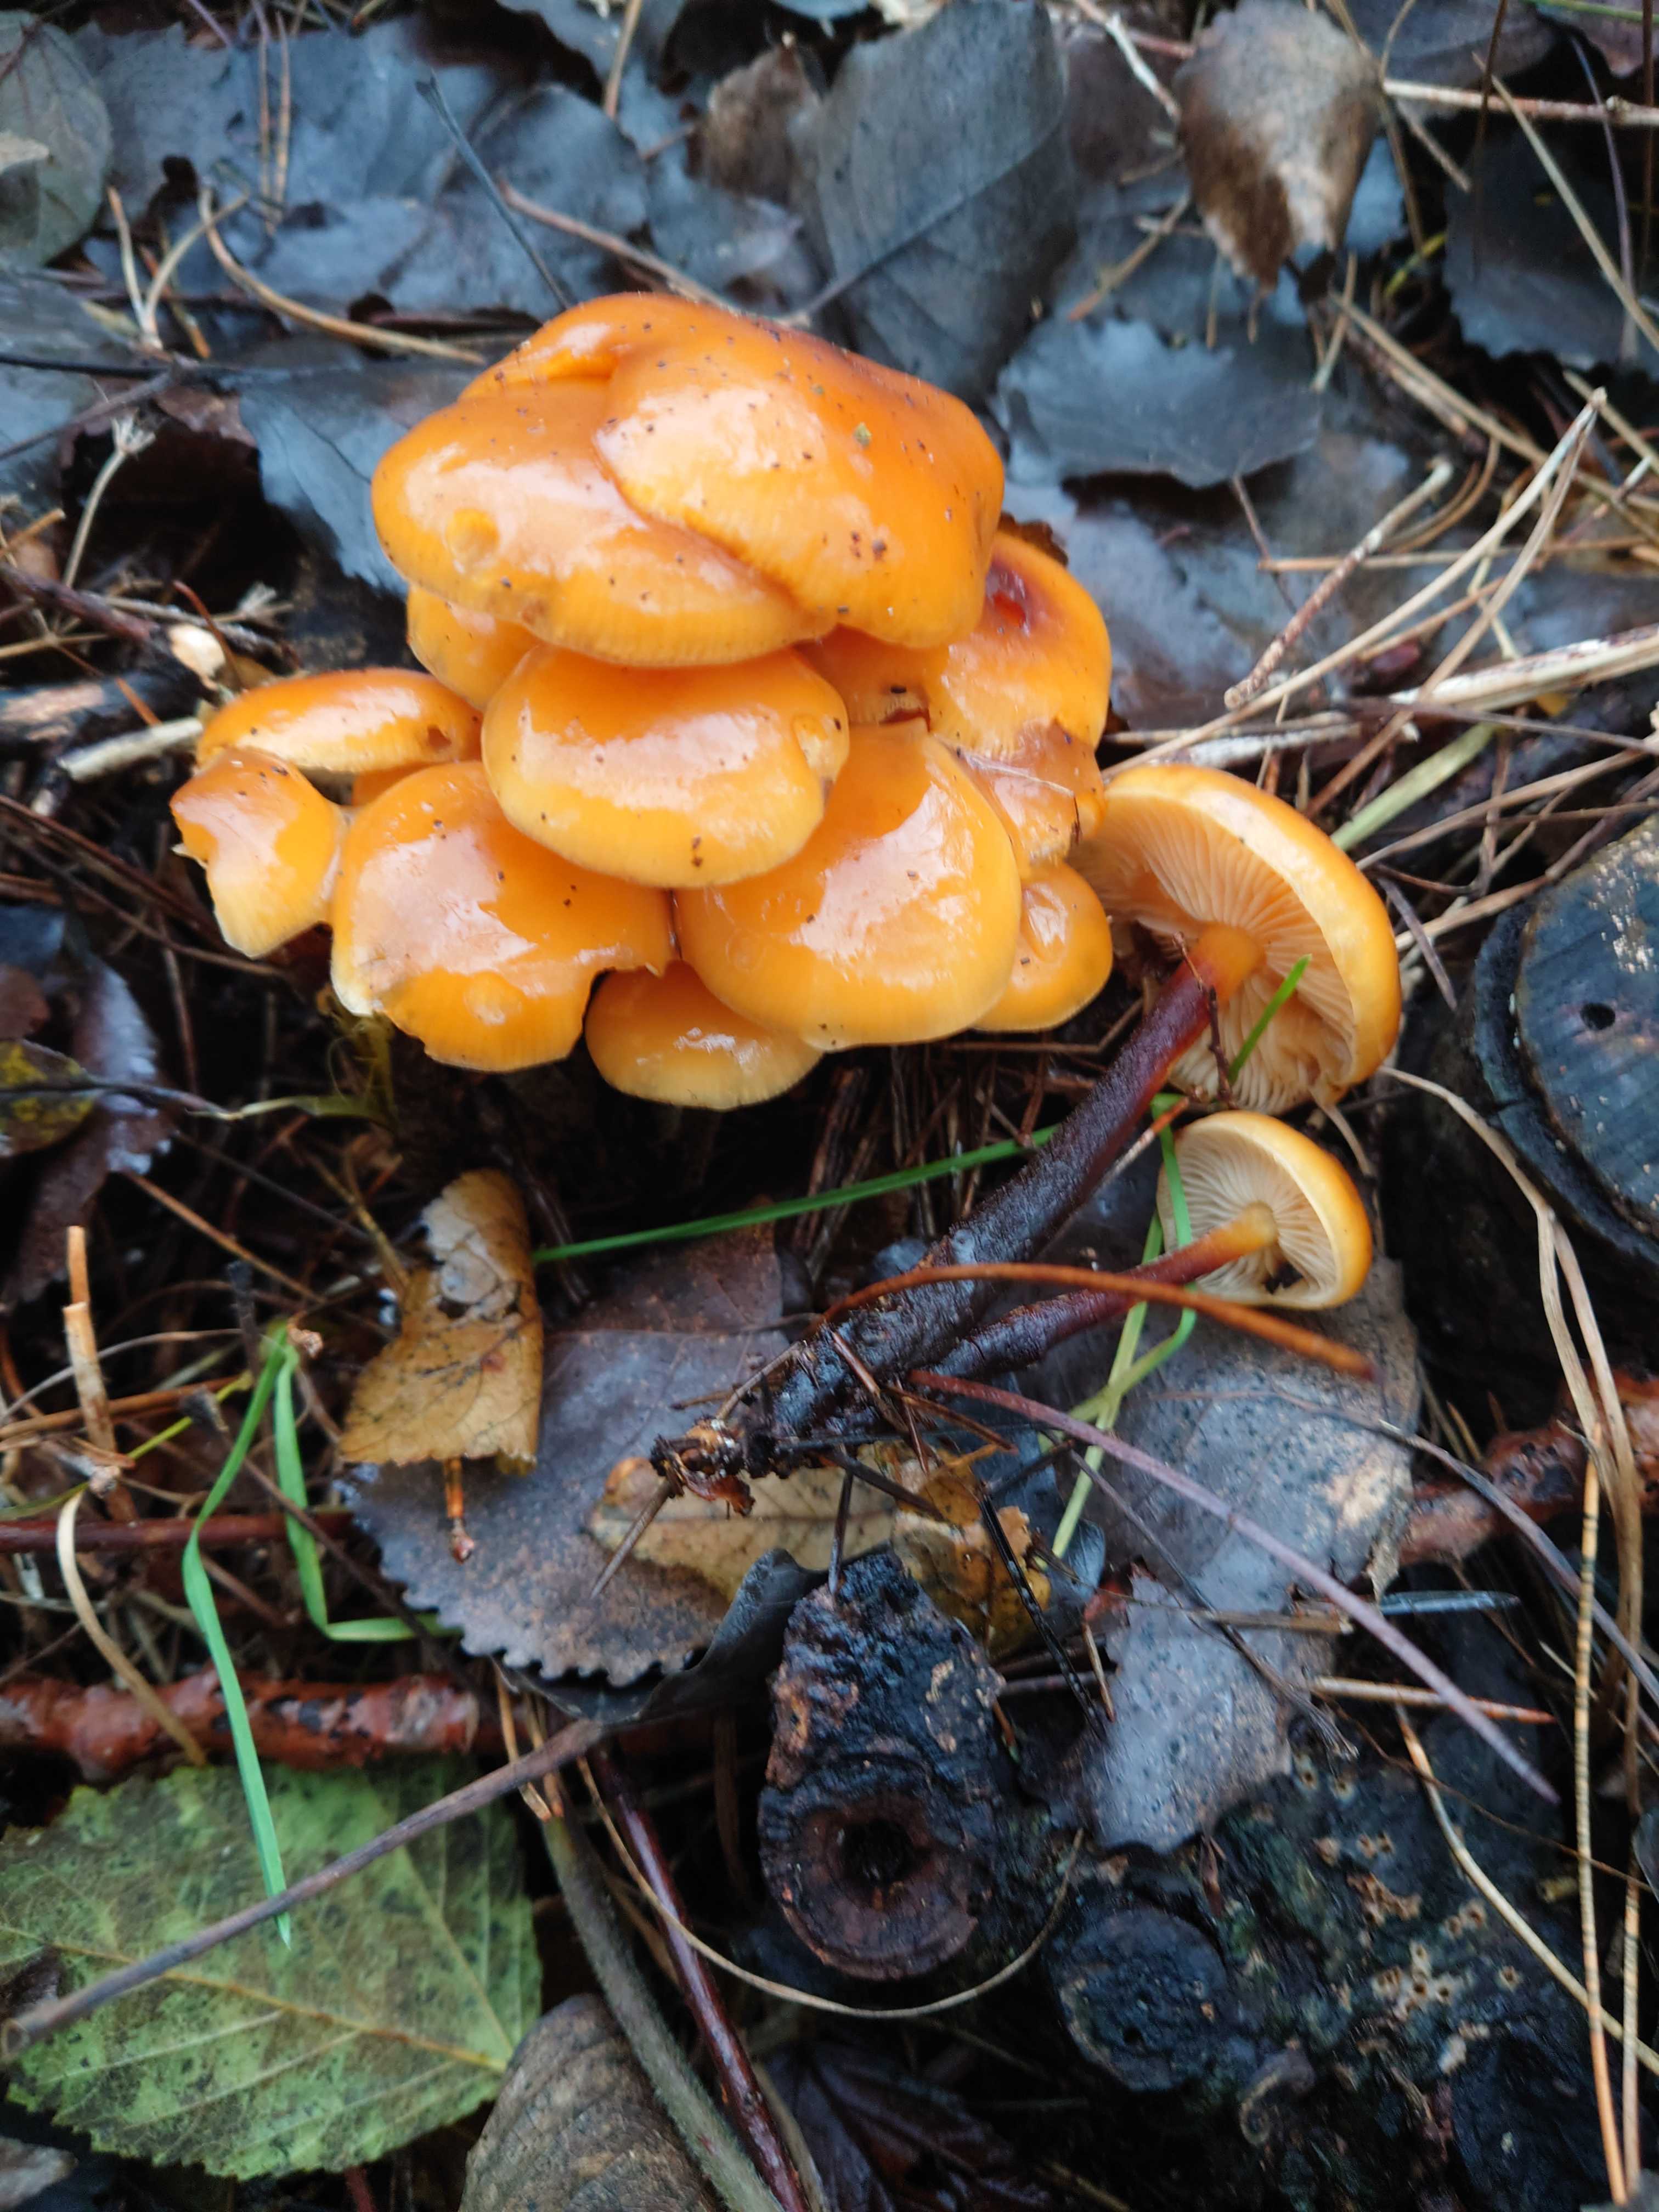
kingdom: Fungi
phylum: Basidiomycota
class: Agaricomycetes
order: Agaricales
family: Physalacriaceae
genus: Flammulina
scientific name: Flammulina populicola
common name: poppel-fløjlsfod
